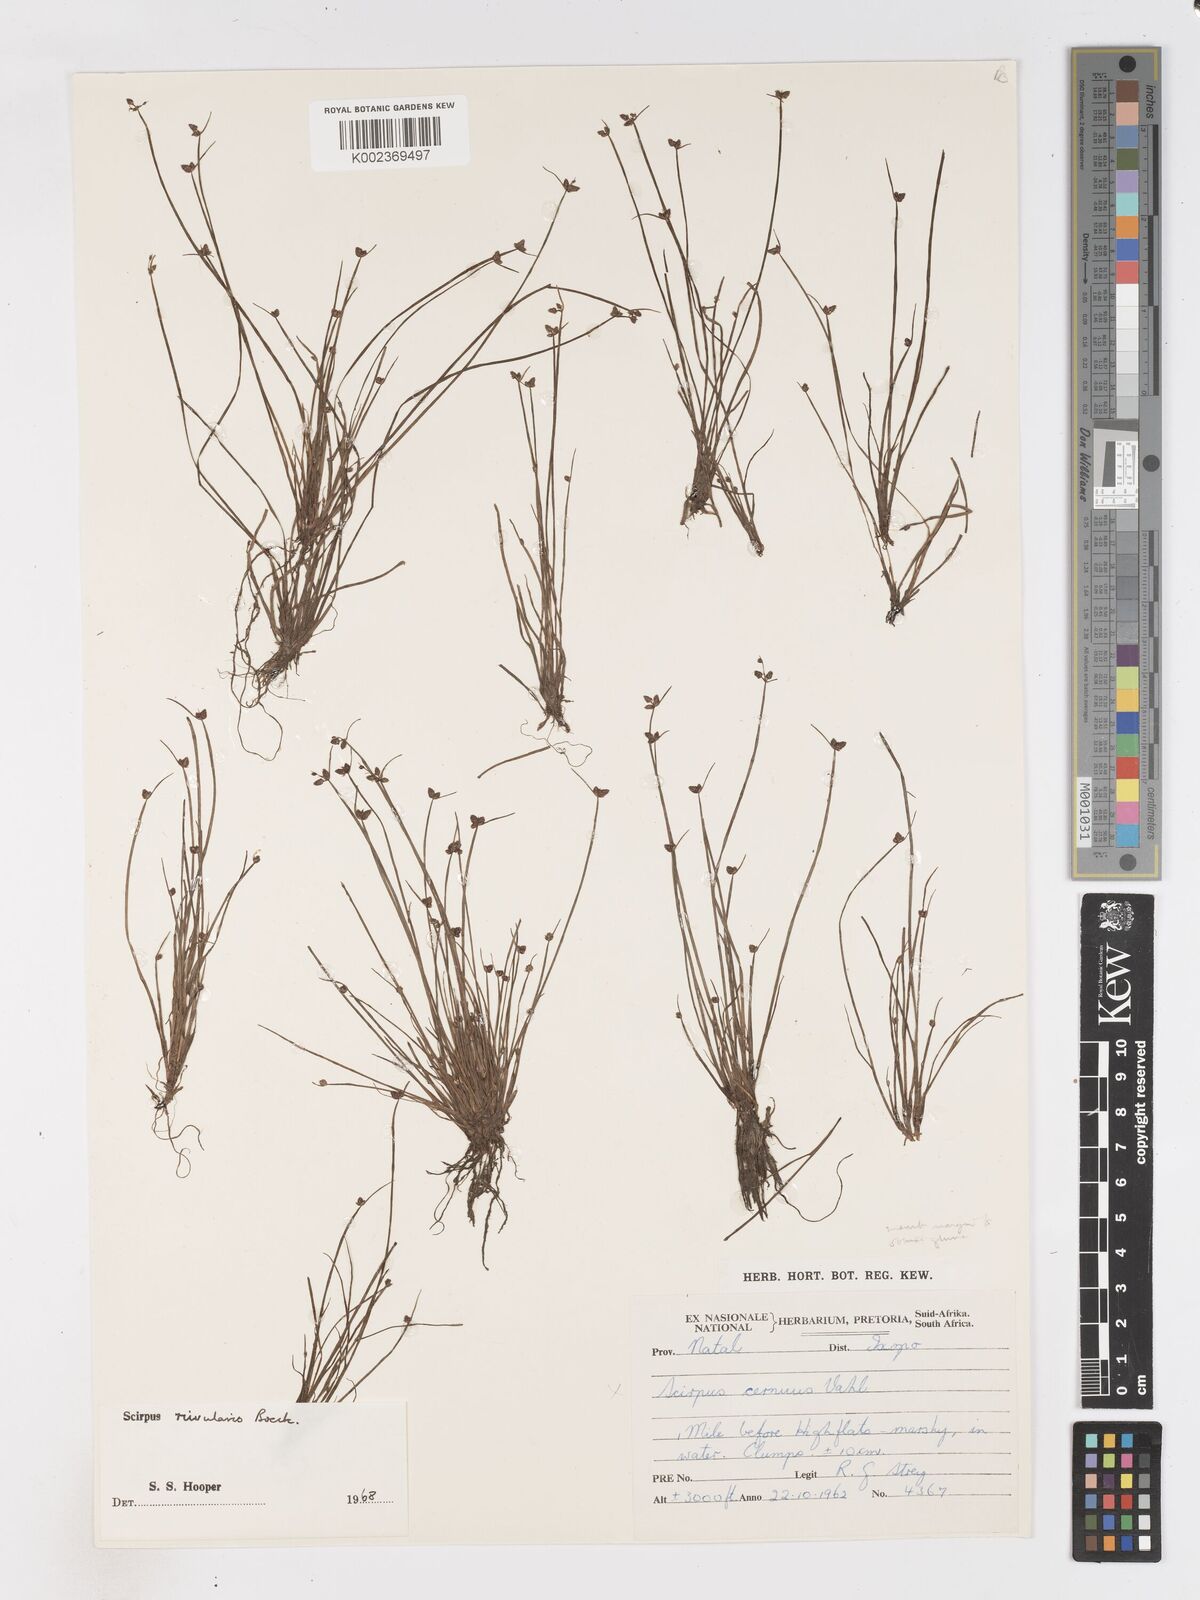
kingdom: Plantae
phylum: Tracheophyta
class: Liliopsida
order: Poales
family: Cyperaceae
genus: Isolepis
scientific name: Isolepis natans
